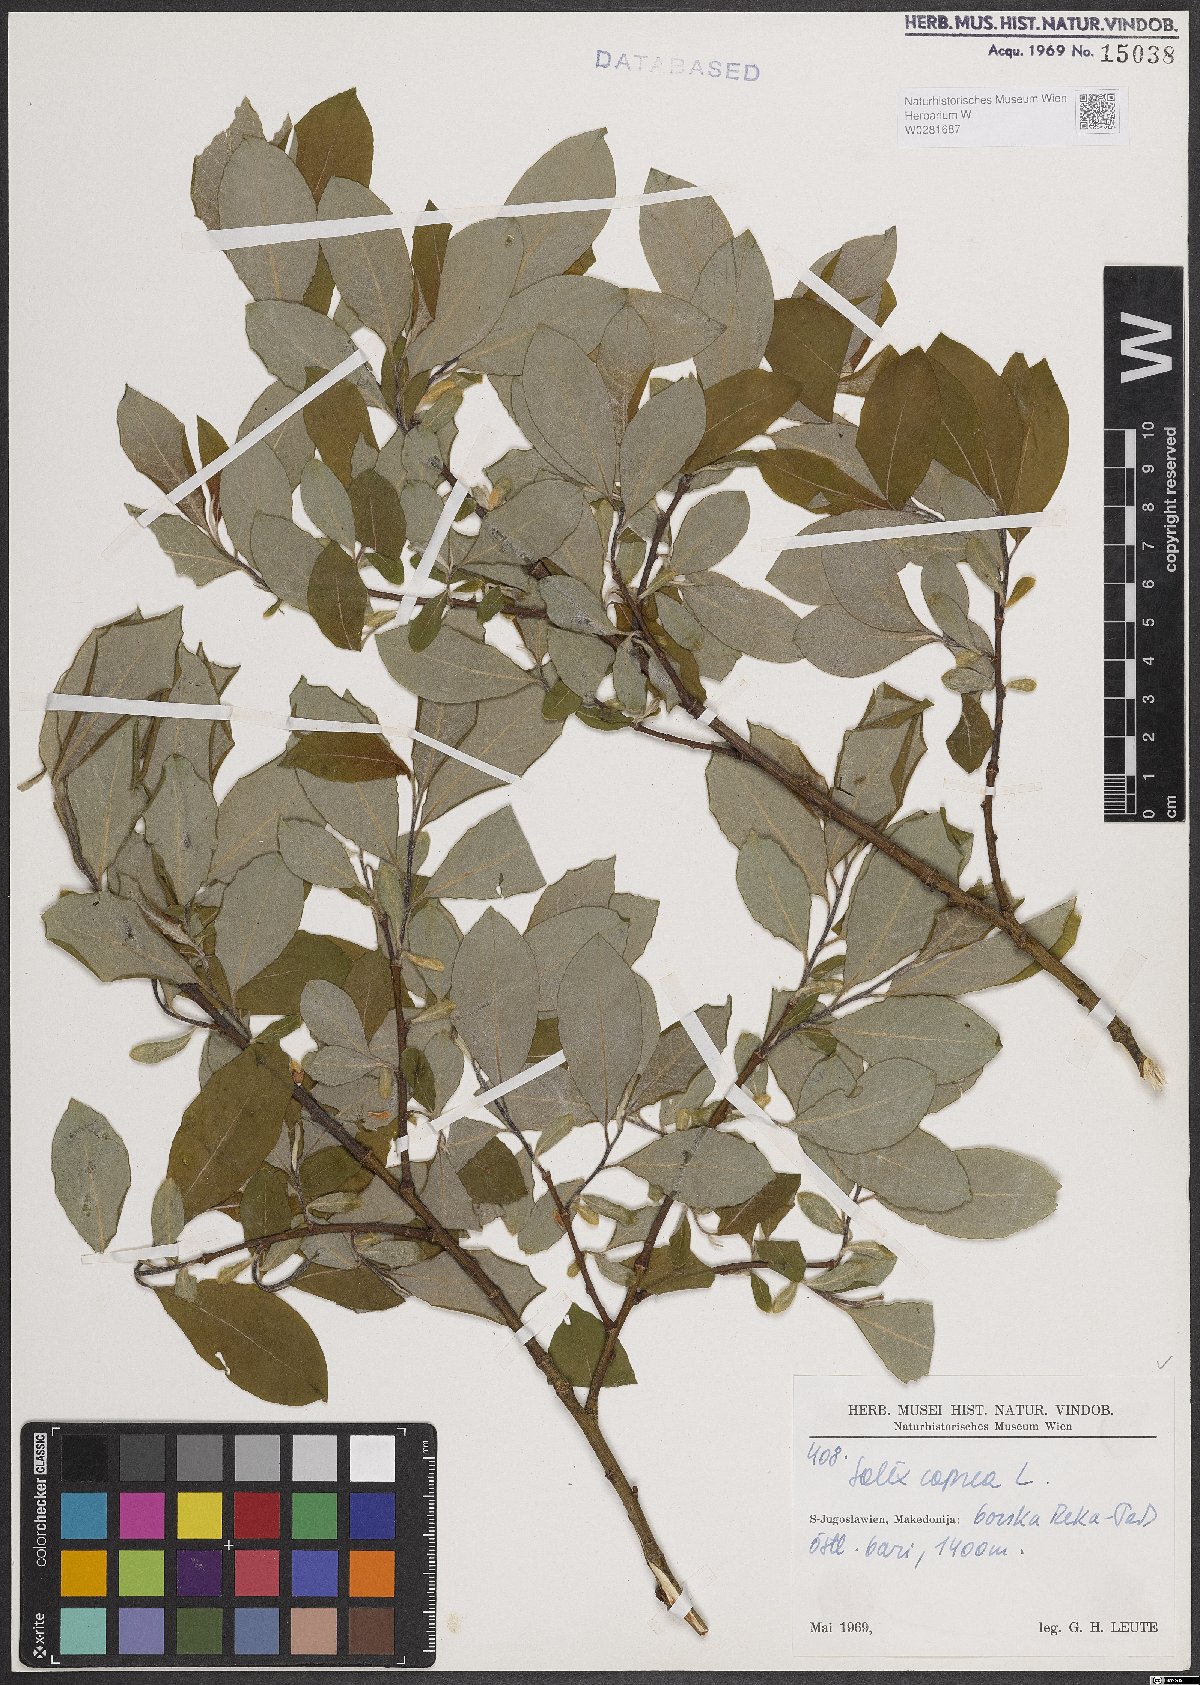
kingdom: Plantae
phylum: Tracheophyta
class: Magnoliopsida
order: Malpighiales
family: Salicaceae
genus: Salix
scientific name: Salix caprea
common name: Goat willow
